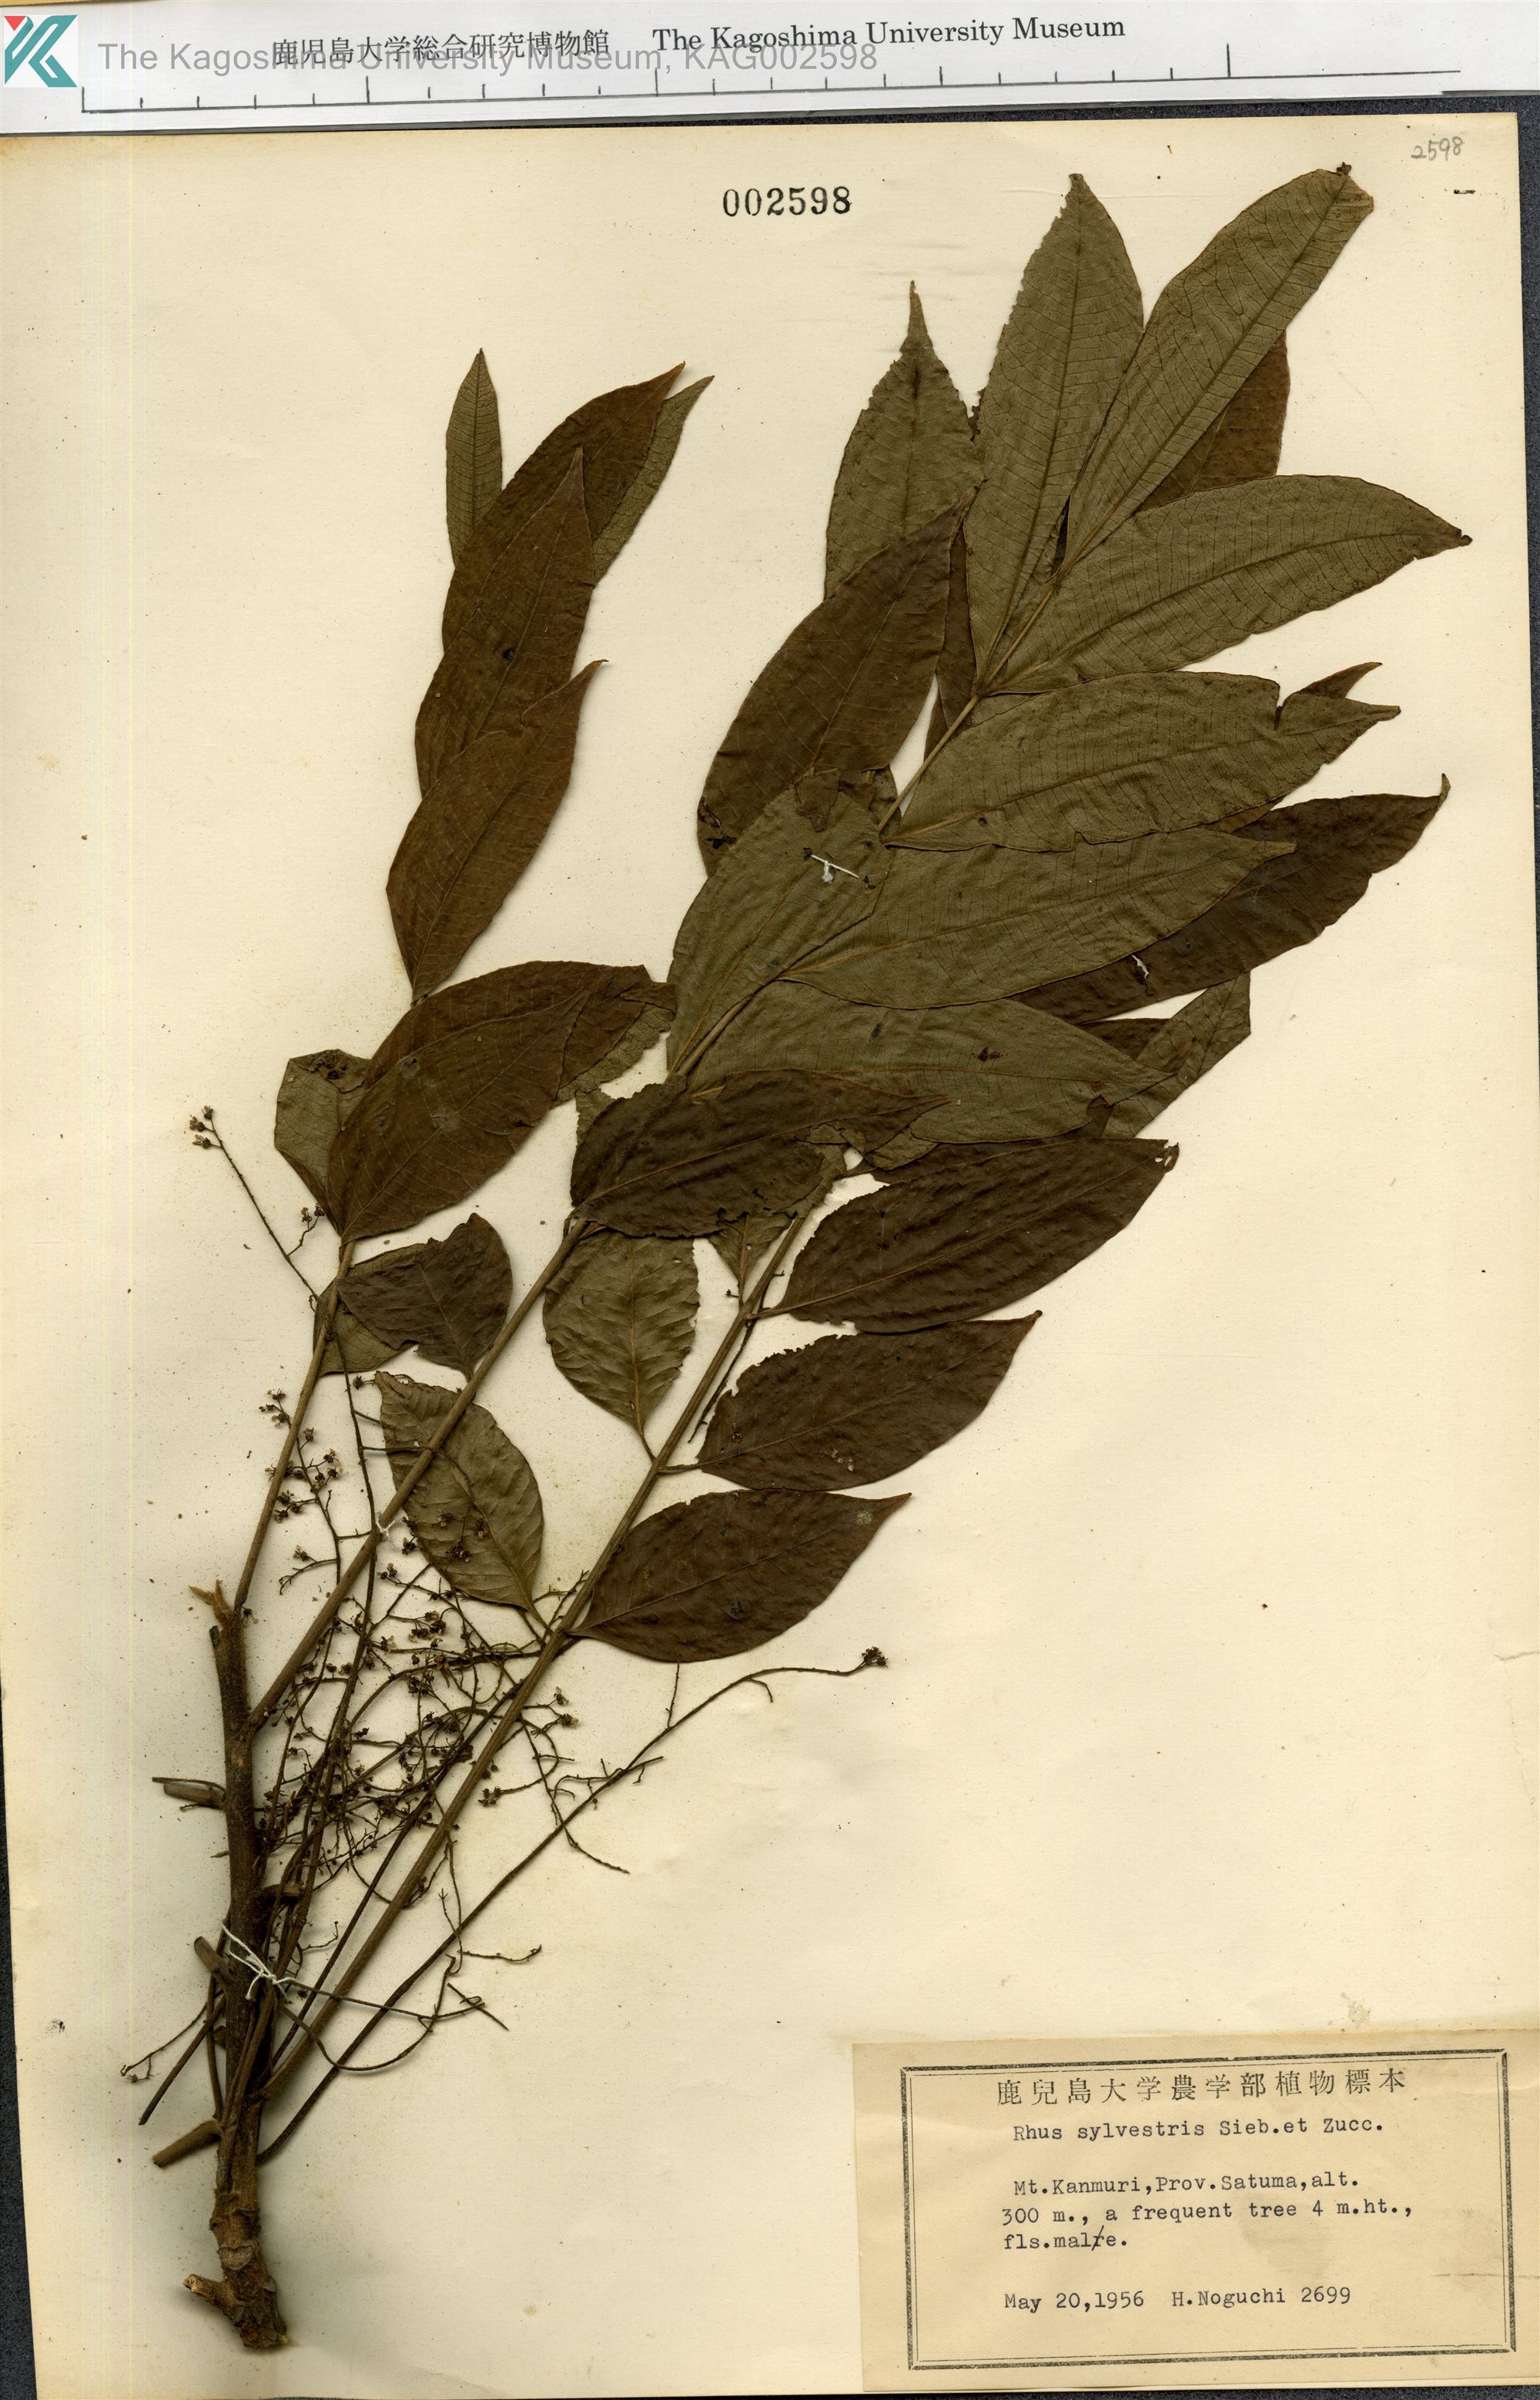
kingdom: Plantae
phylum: Tracheophyta
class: Magnoliopsida
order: Sapindales
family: Anacardiaceae
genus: Toxicodendron
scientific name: Toxicodendron sylvestre
